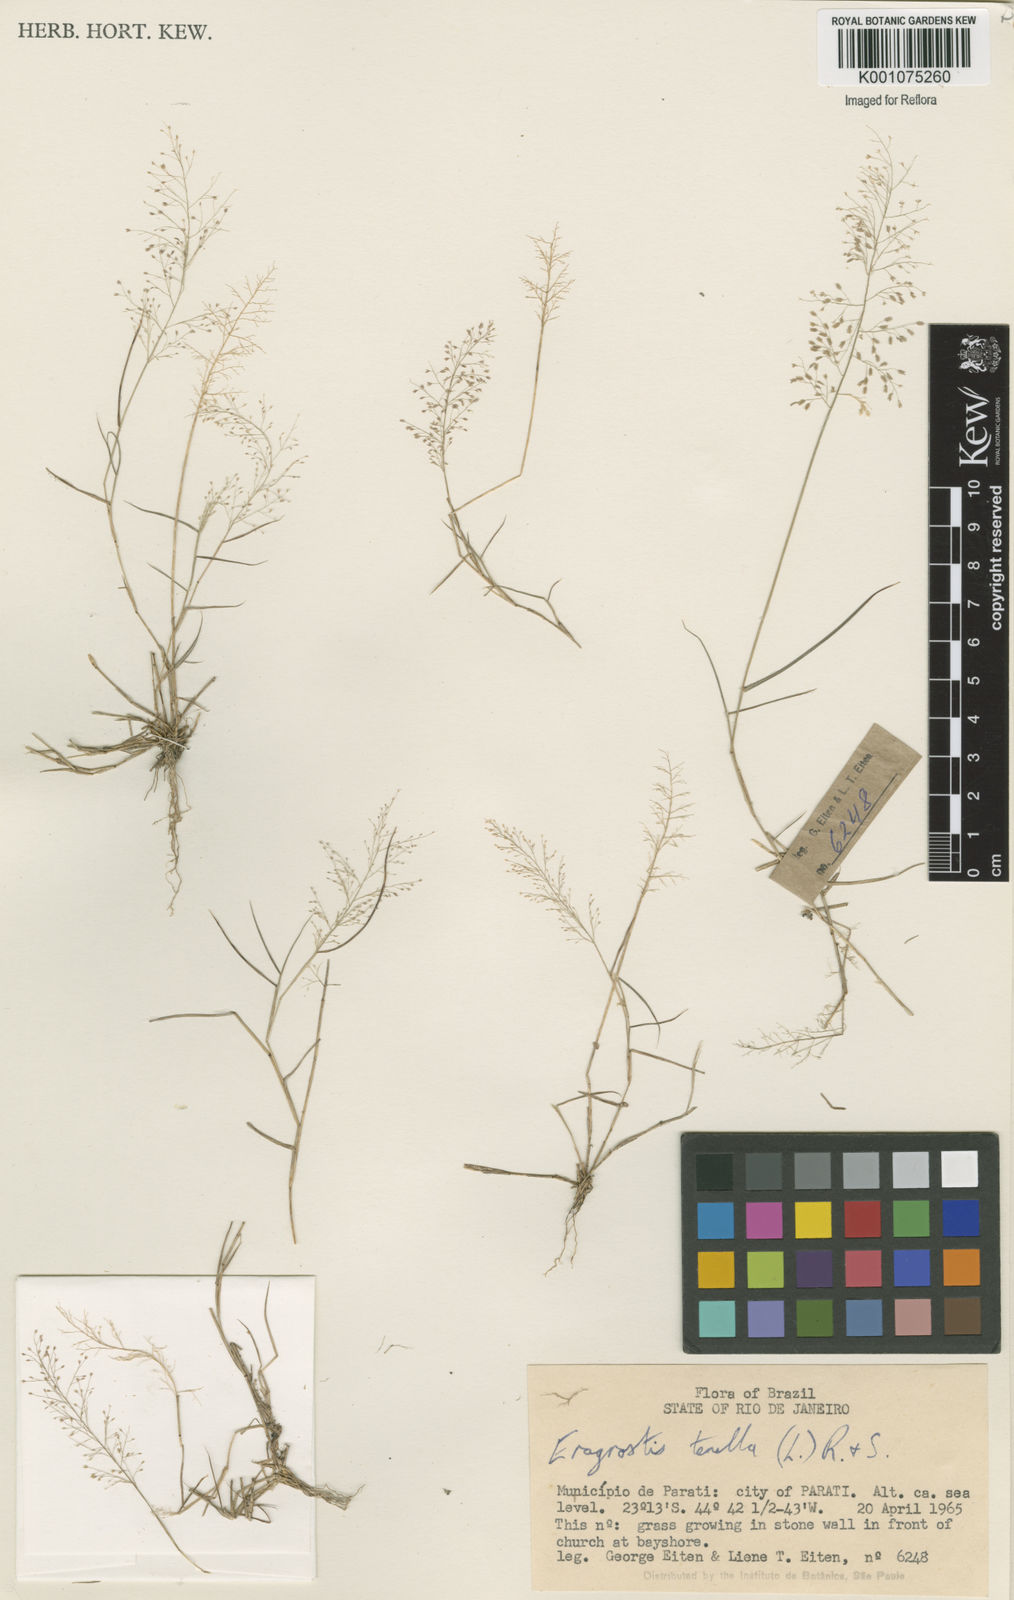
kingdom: Plantae
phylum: Tracheophyta
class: Liliopsida
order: Poales
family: Poaceae
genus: Eragrostis
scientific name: Eragrostis tenella
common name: Japanese lovegrass
